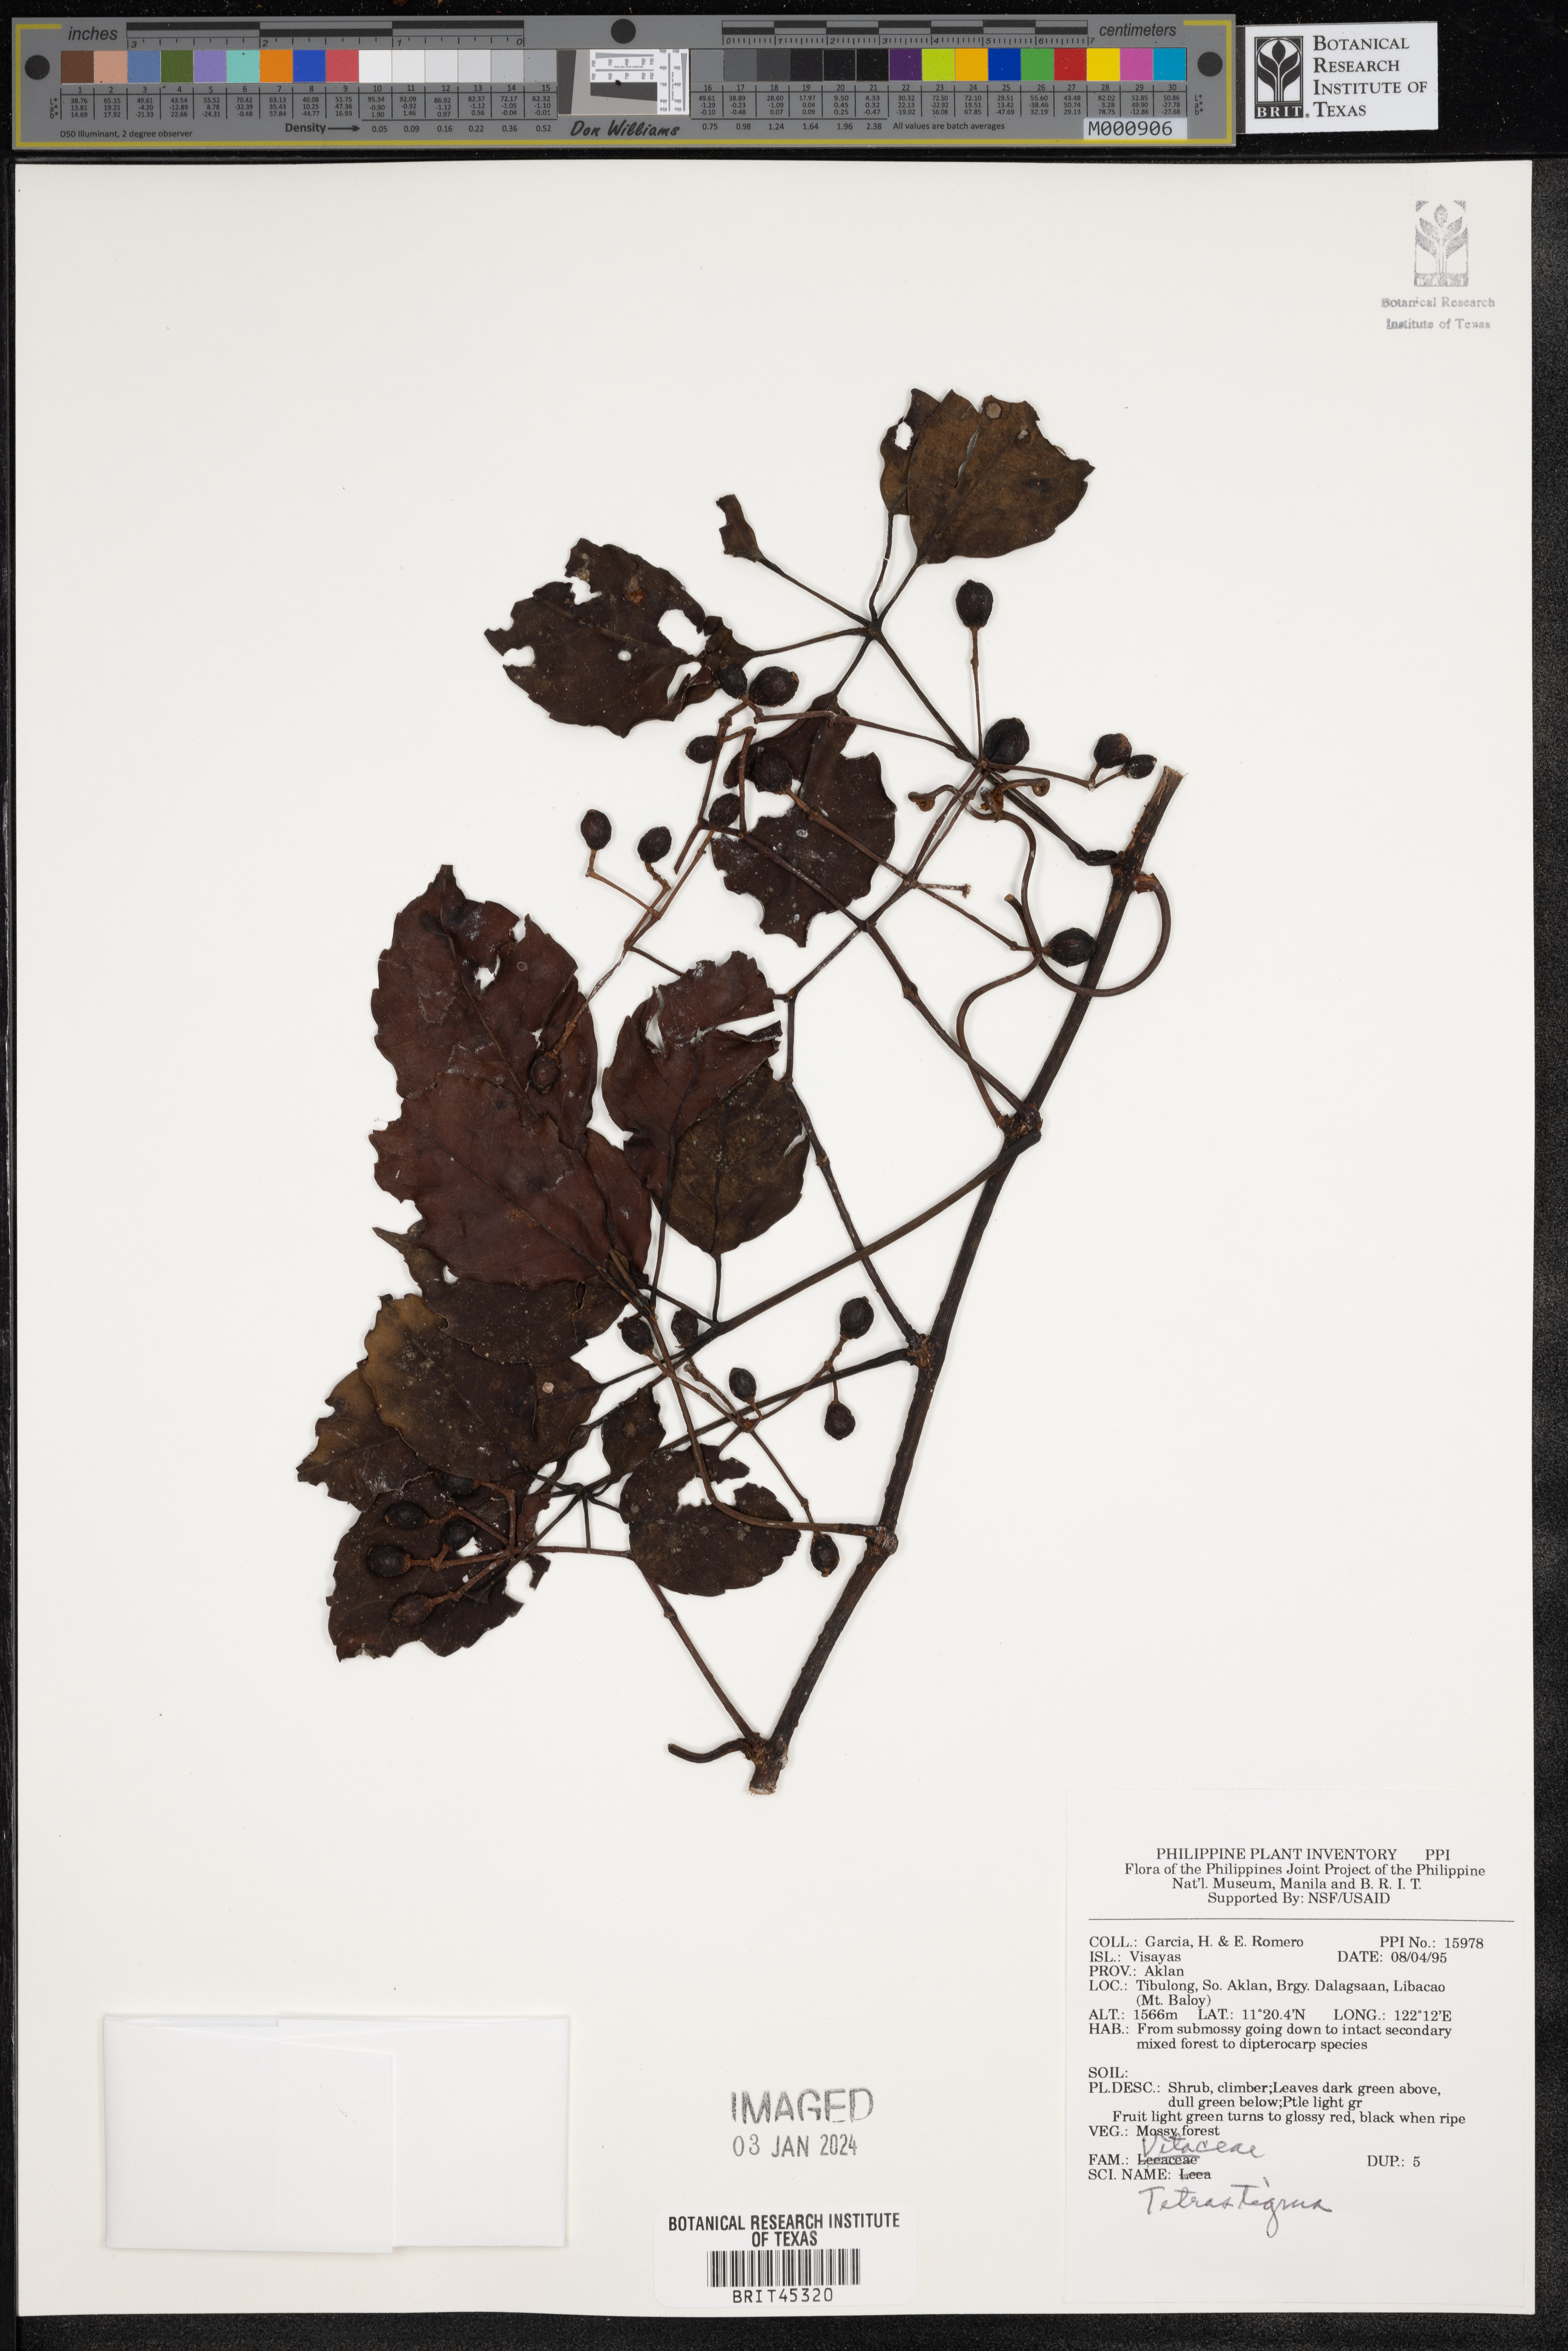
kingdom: Plantae
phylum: Tracheophyta
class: Magnoliopsida
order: Vitales
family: Vitaceae
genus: Tetrastigma
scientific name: Tetrastigma
